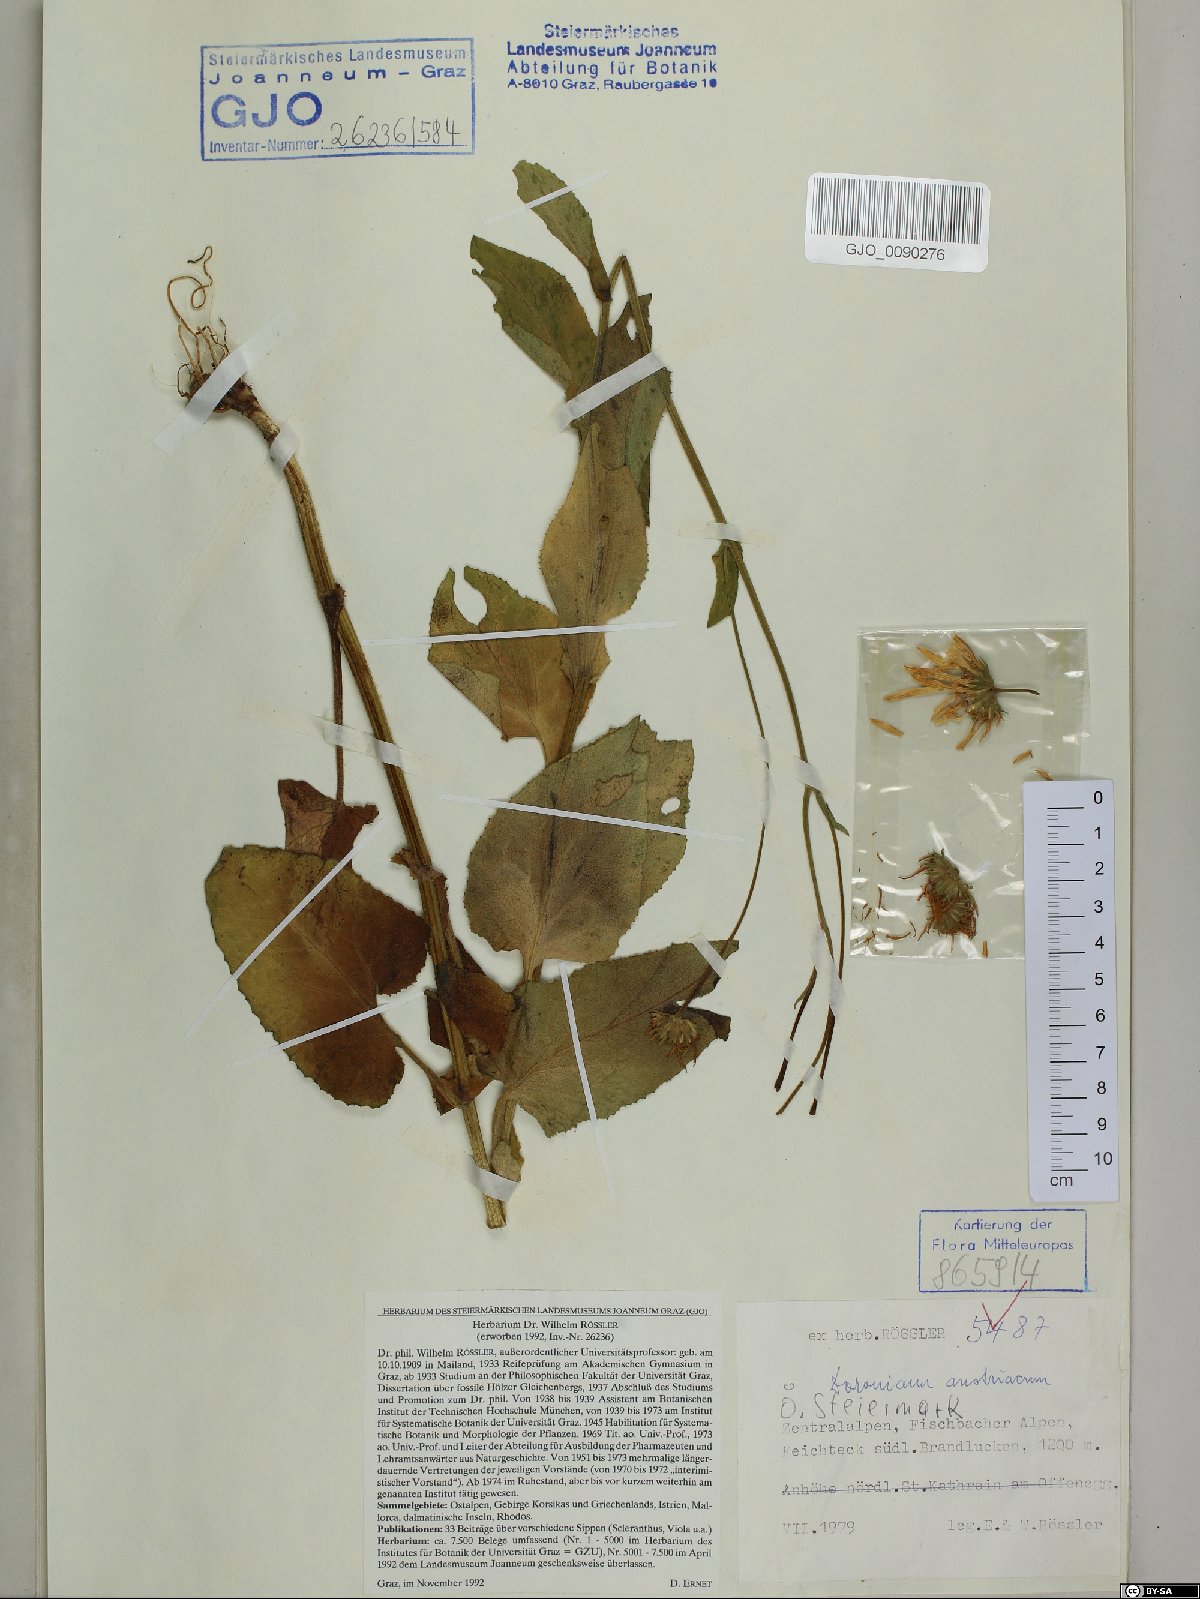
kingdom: Plantae
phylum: Tracheophyta
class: Magnoliopsida
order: Asterales
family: Asteraceae
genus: Doronicum
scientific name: Doronicum austriacum
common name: Austrian leopard's-bane
